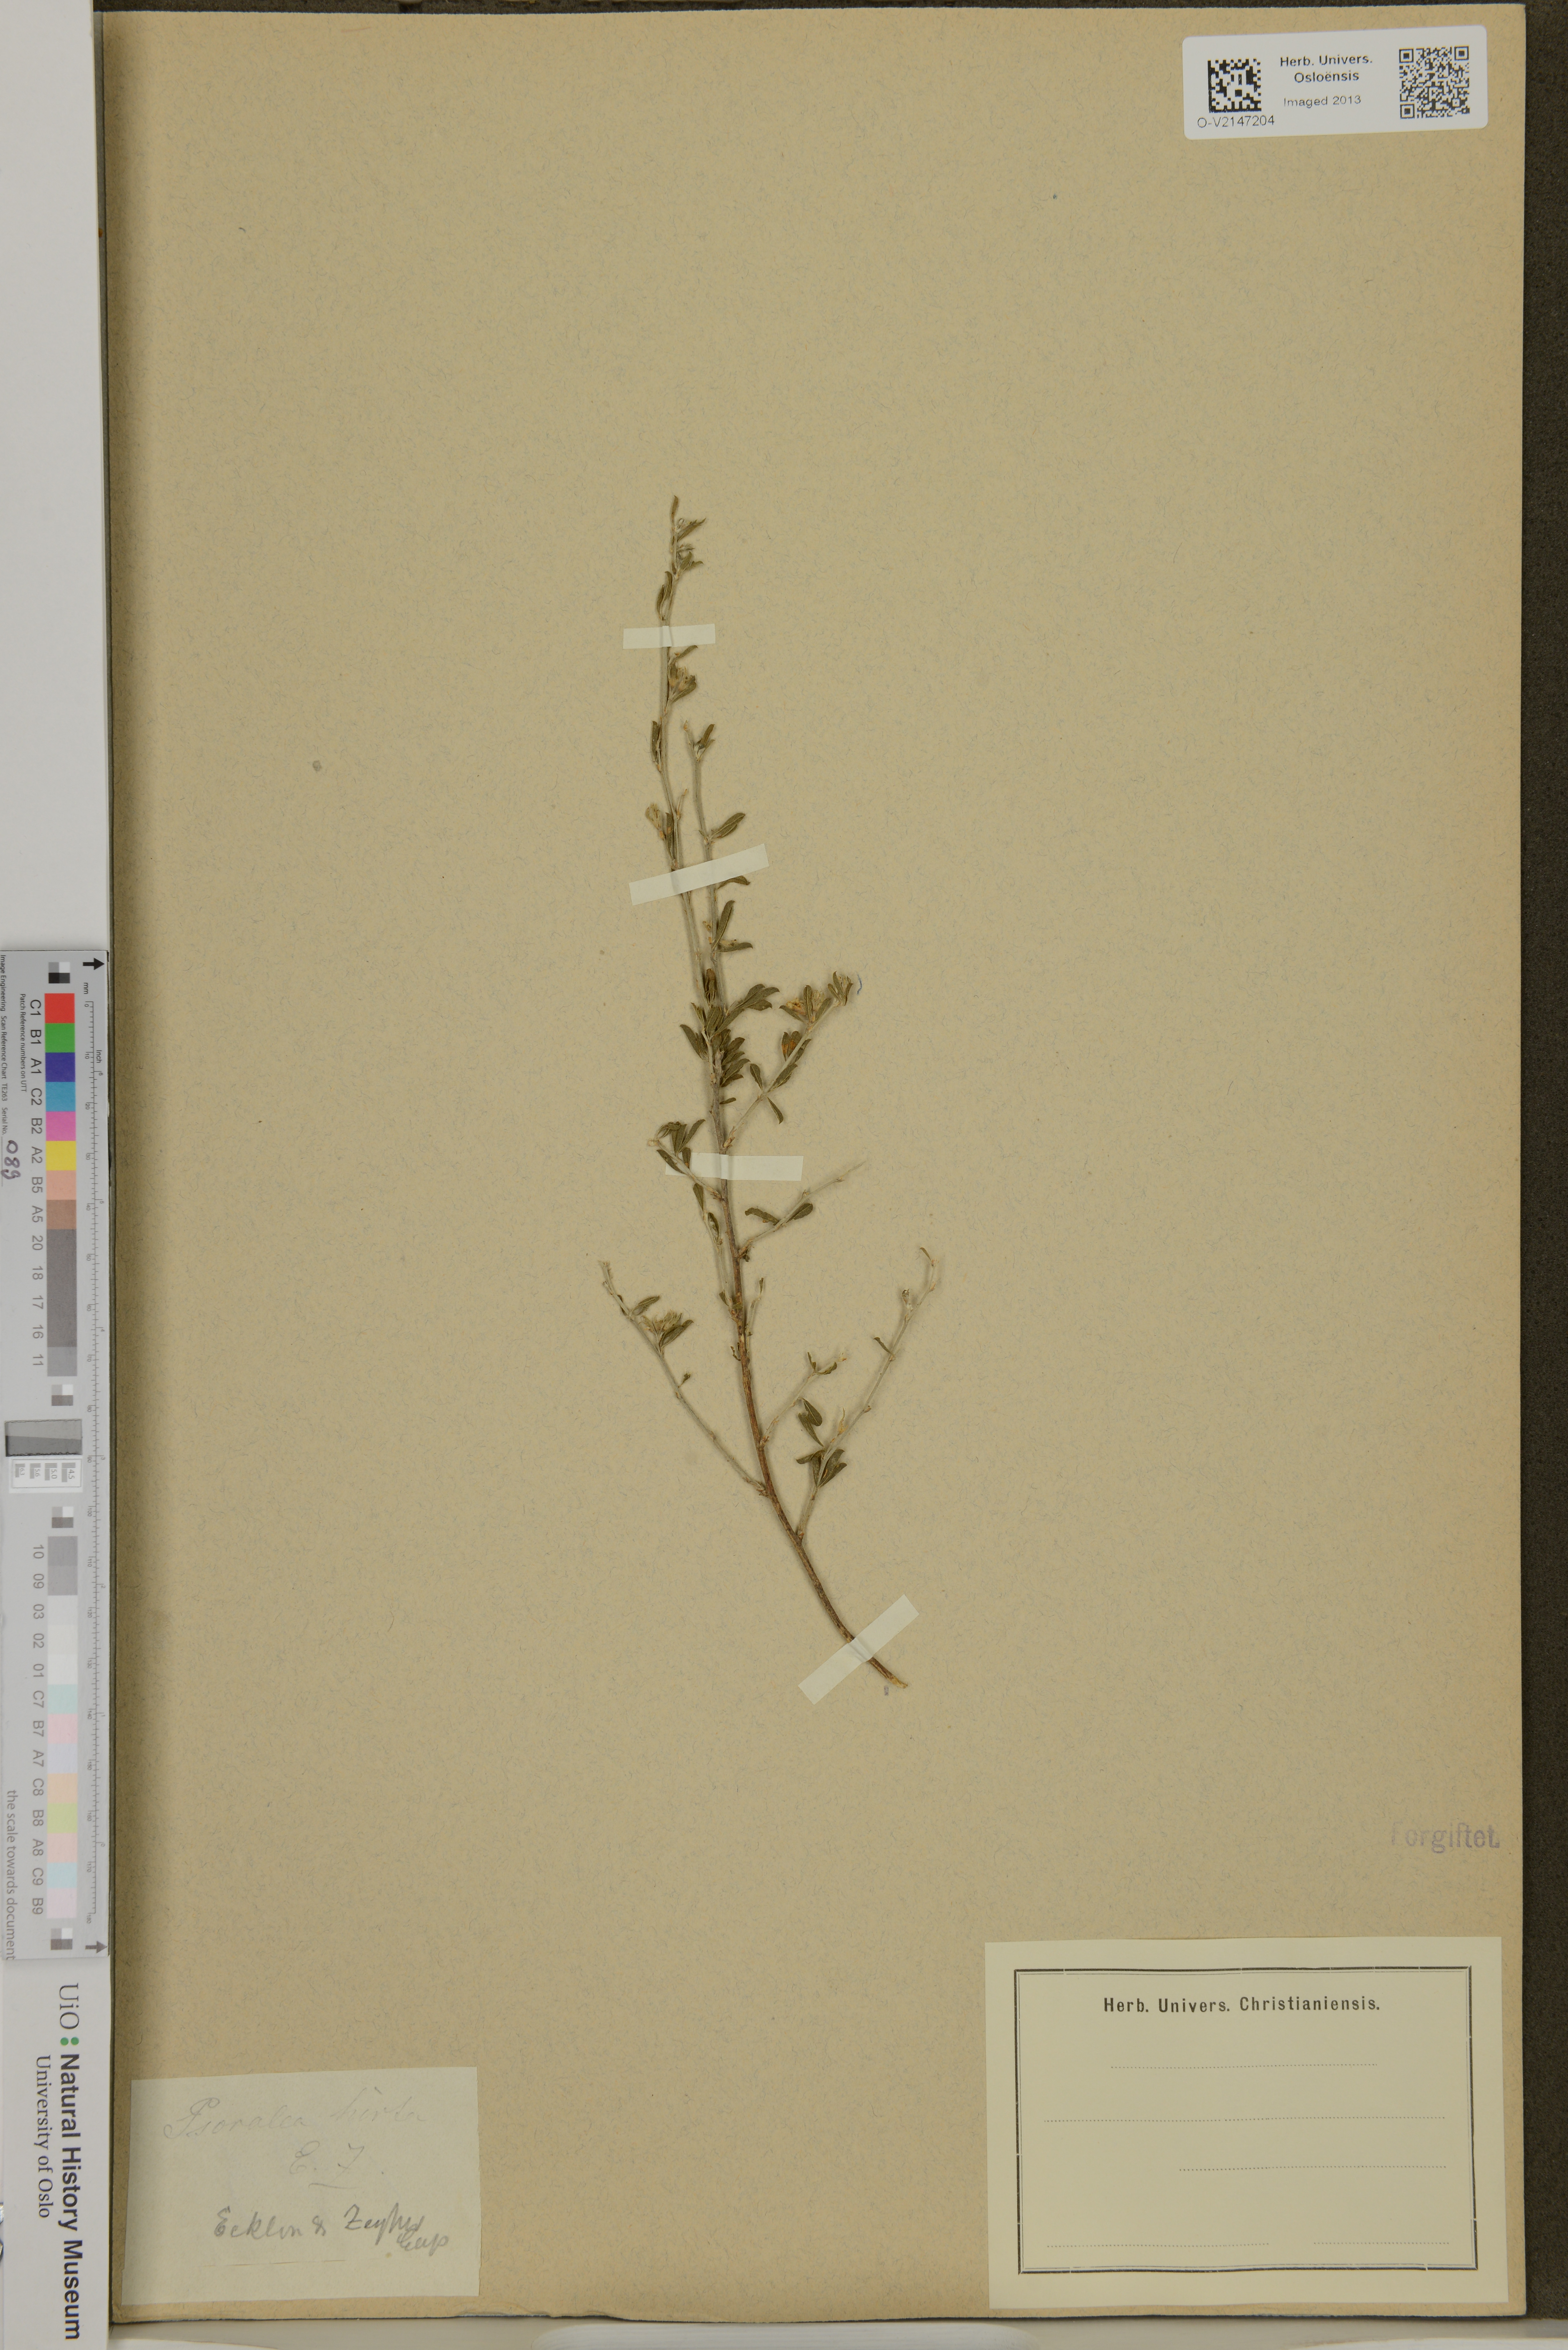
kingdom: Plantae
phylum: Tracheophyta
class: Magnoliopsida
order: Fabales
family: Fabaceae
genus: Psoralea
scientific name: Psoralea hirta
